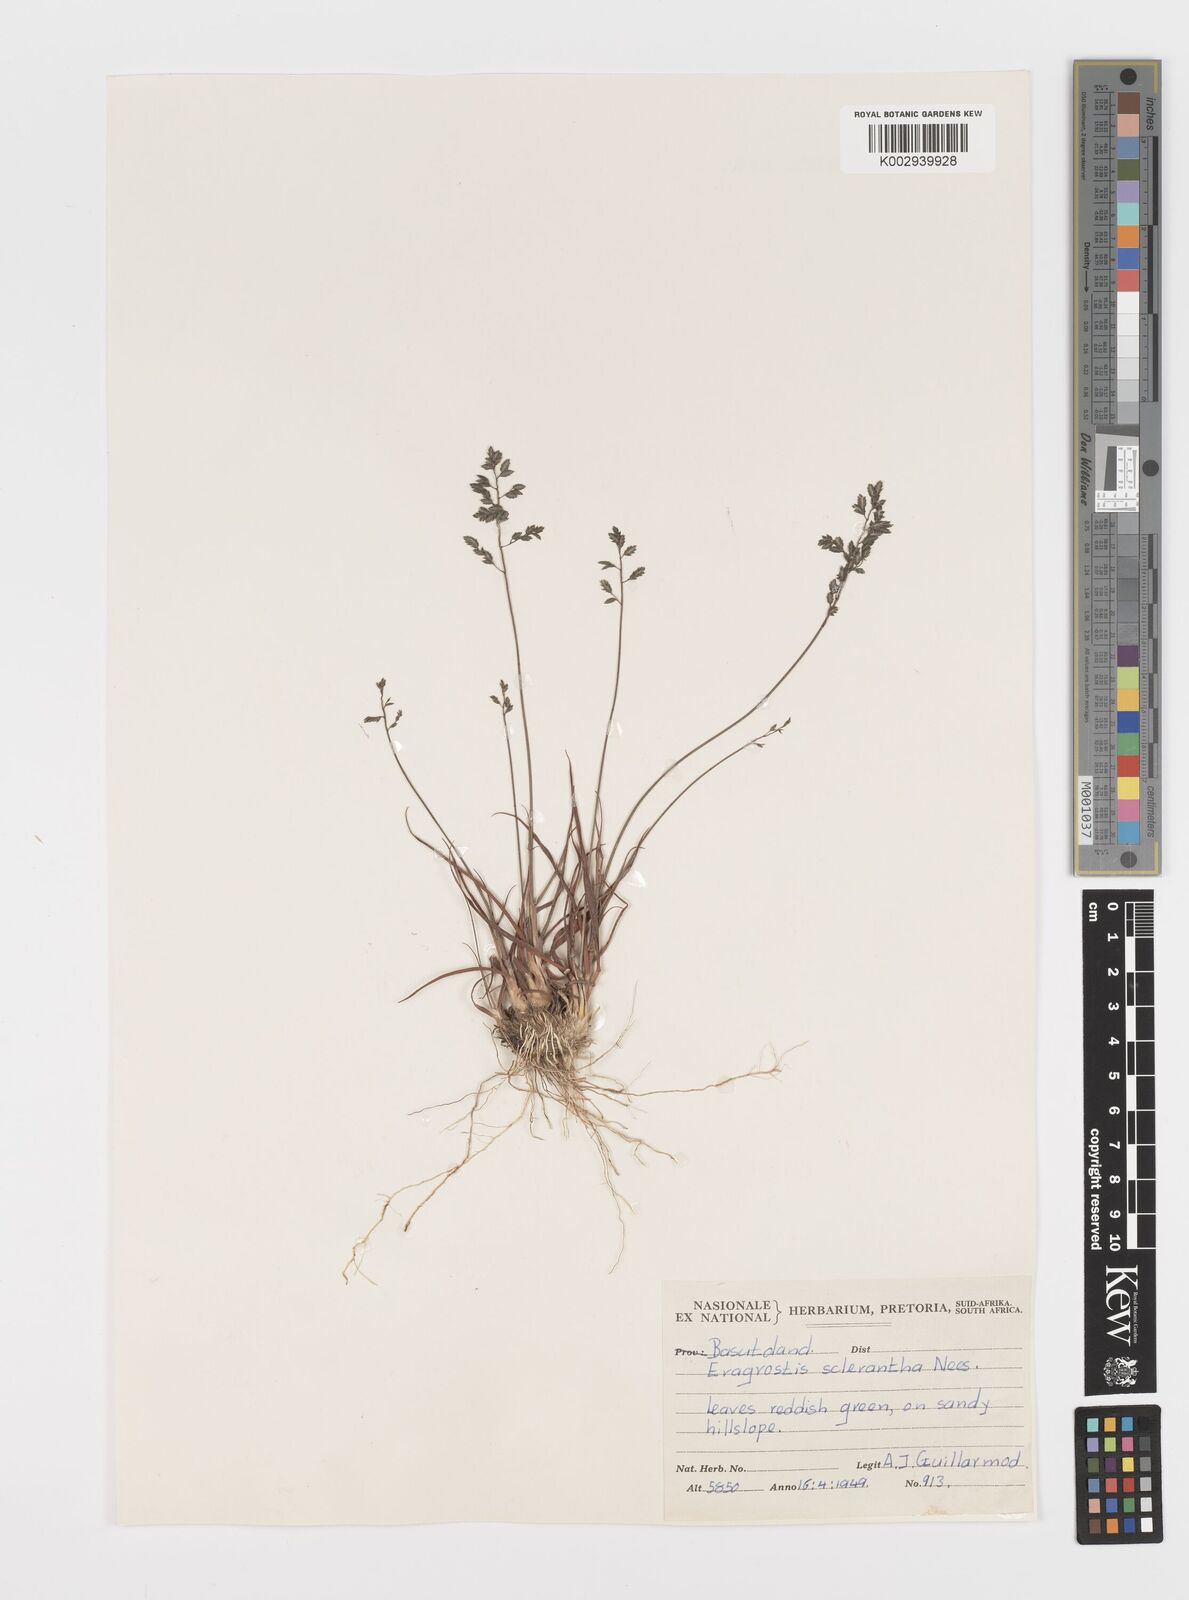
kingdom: Plantae
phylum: Tracheophyta
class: Liliopsida
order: Poales
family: Poaceae
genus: Eragrostis
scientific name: Eragrostis sclerantha
